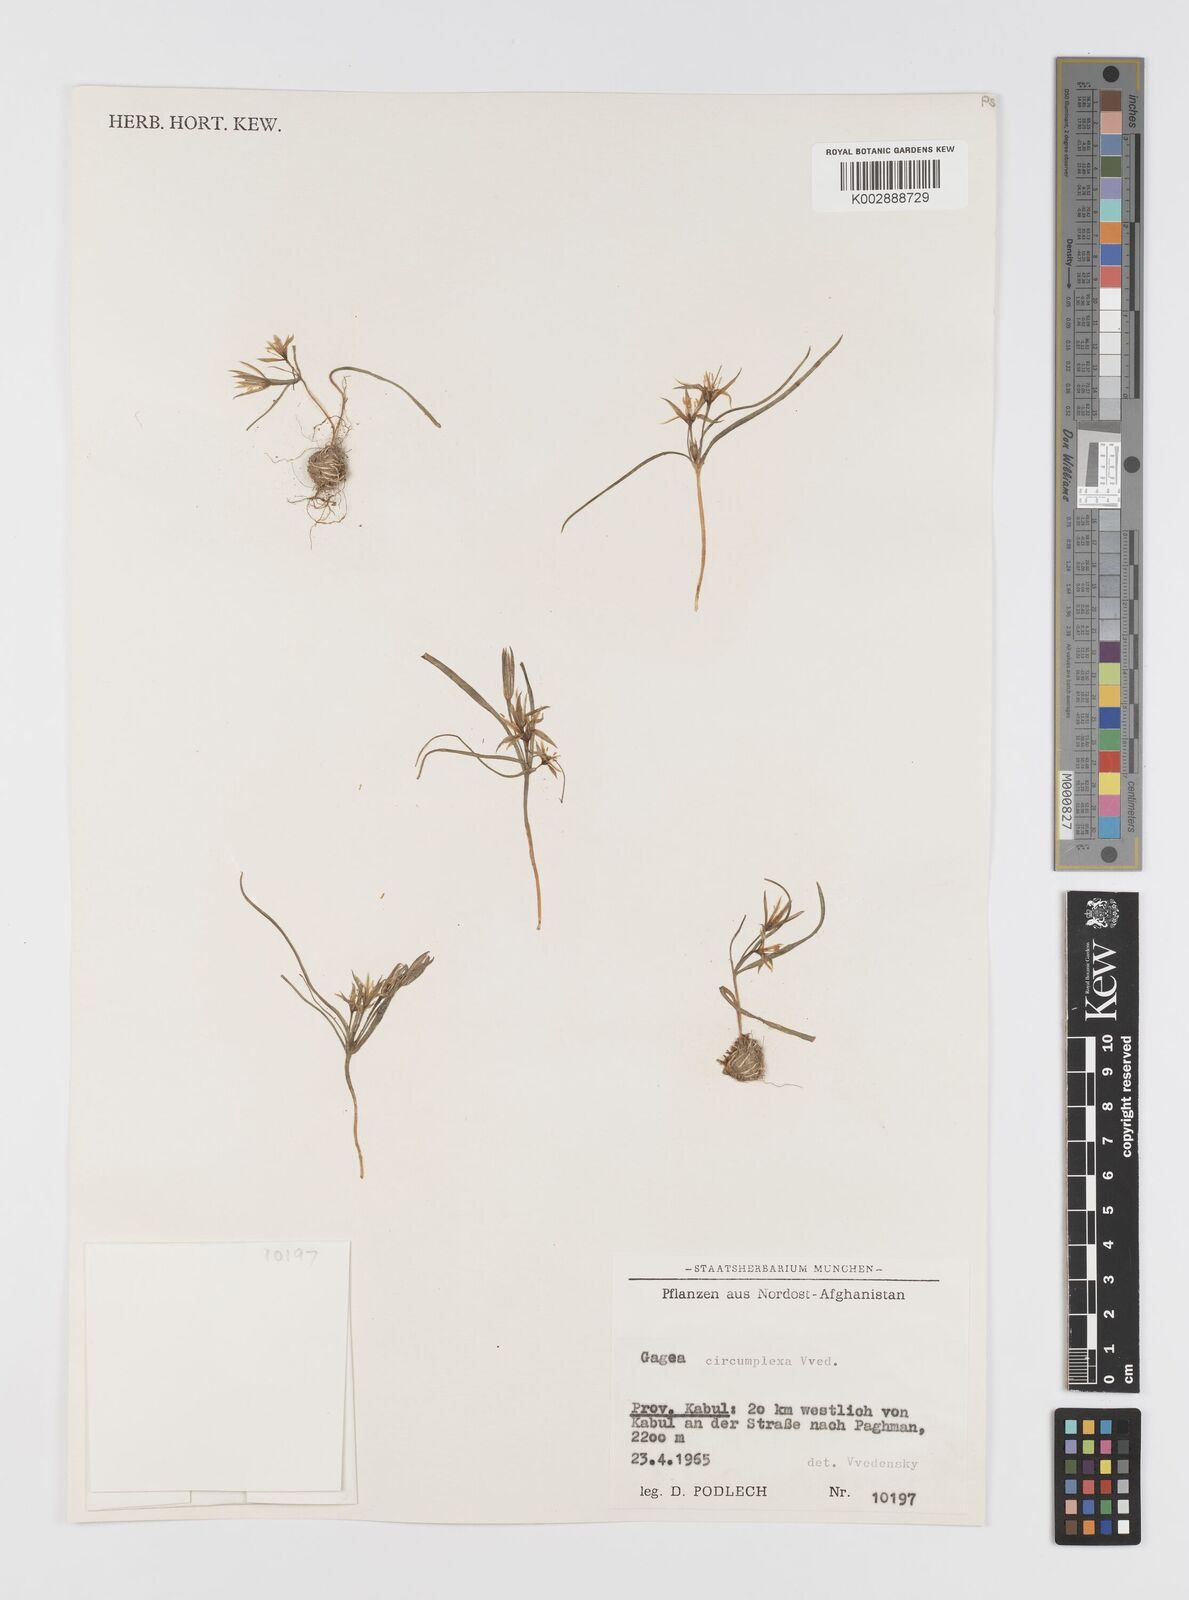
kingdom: Plantae
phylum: Tracheophyta
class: Liliopsida
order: Liliales
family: Liliaceae
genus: Gagea
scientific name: Gagea circumplexa
